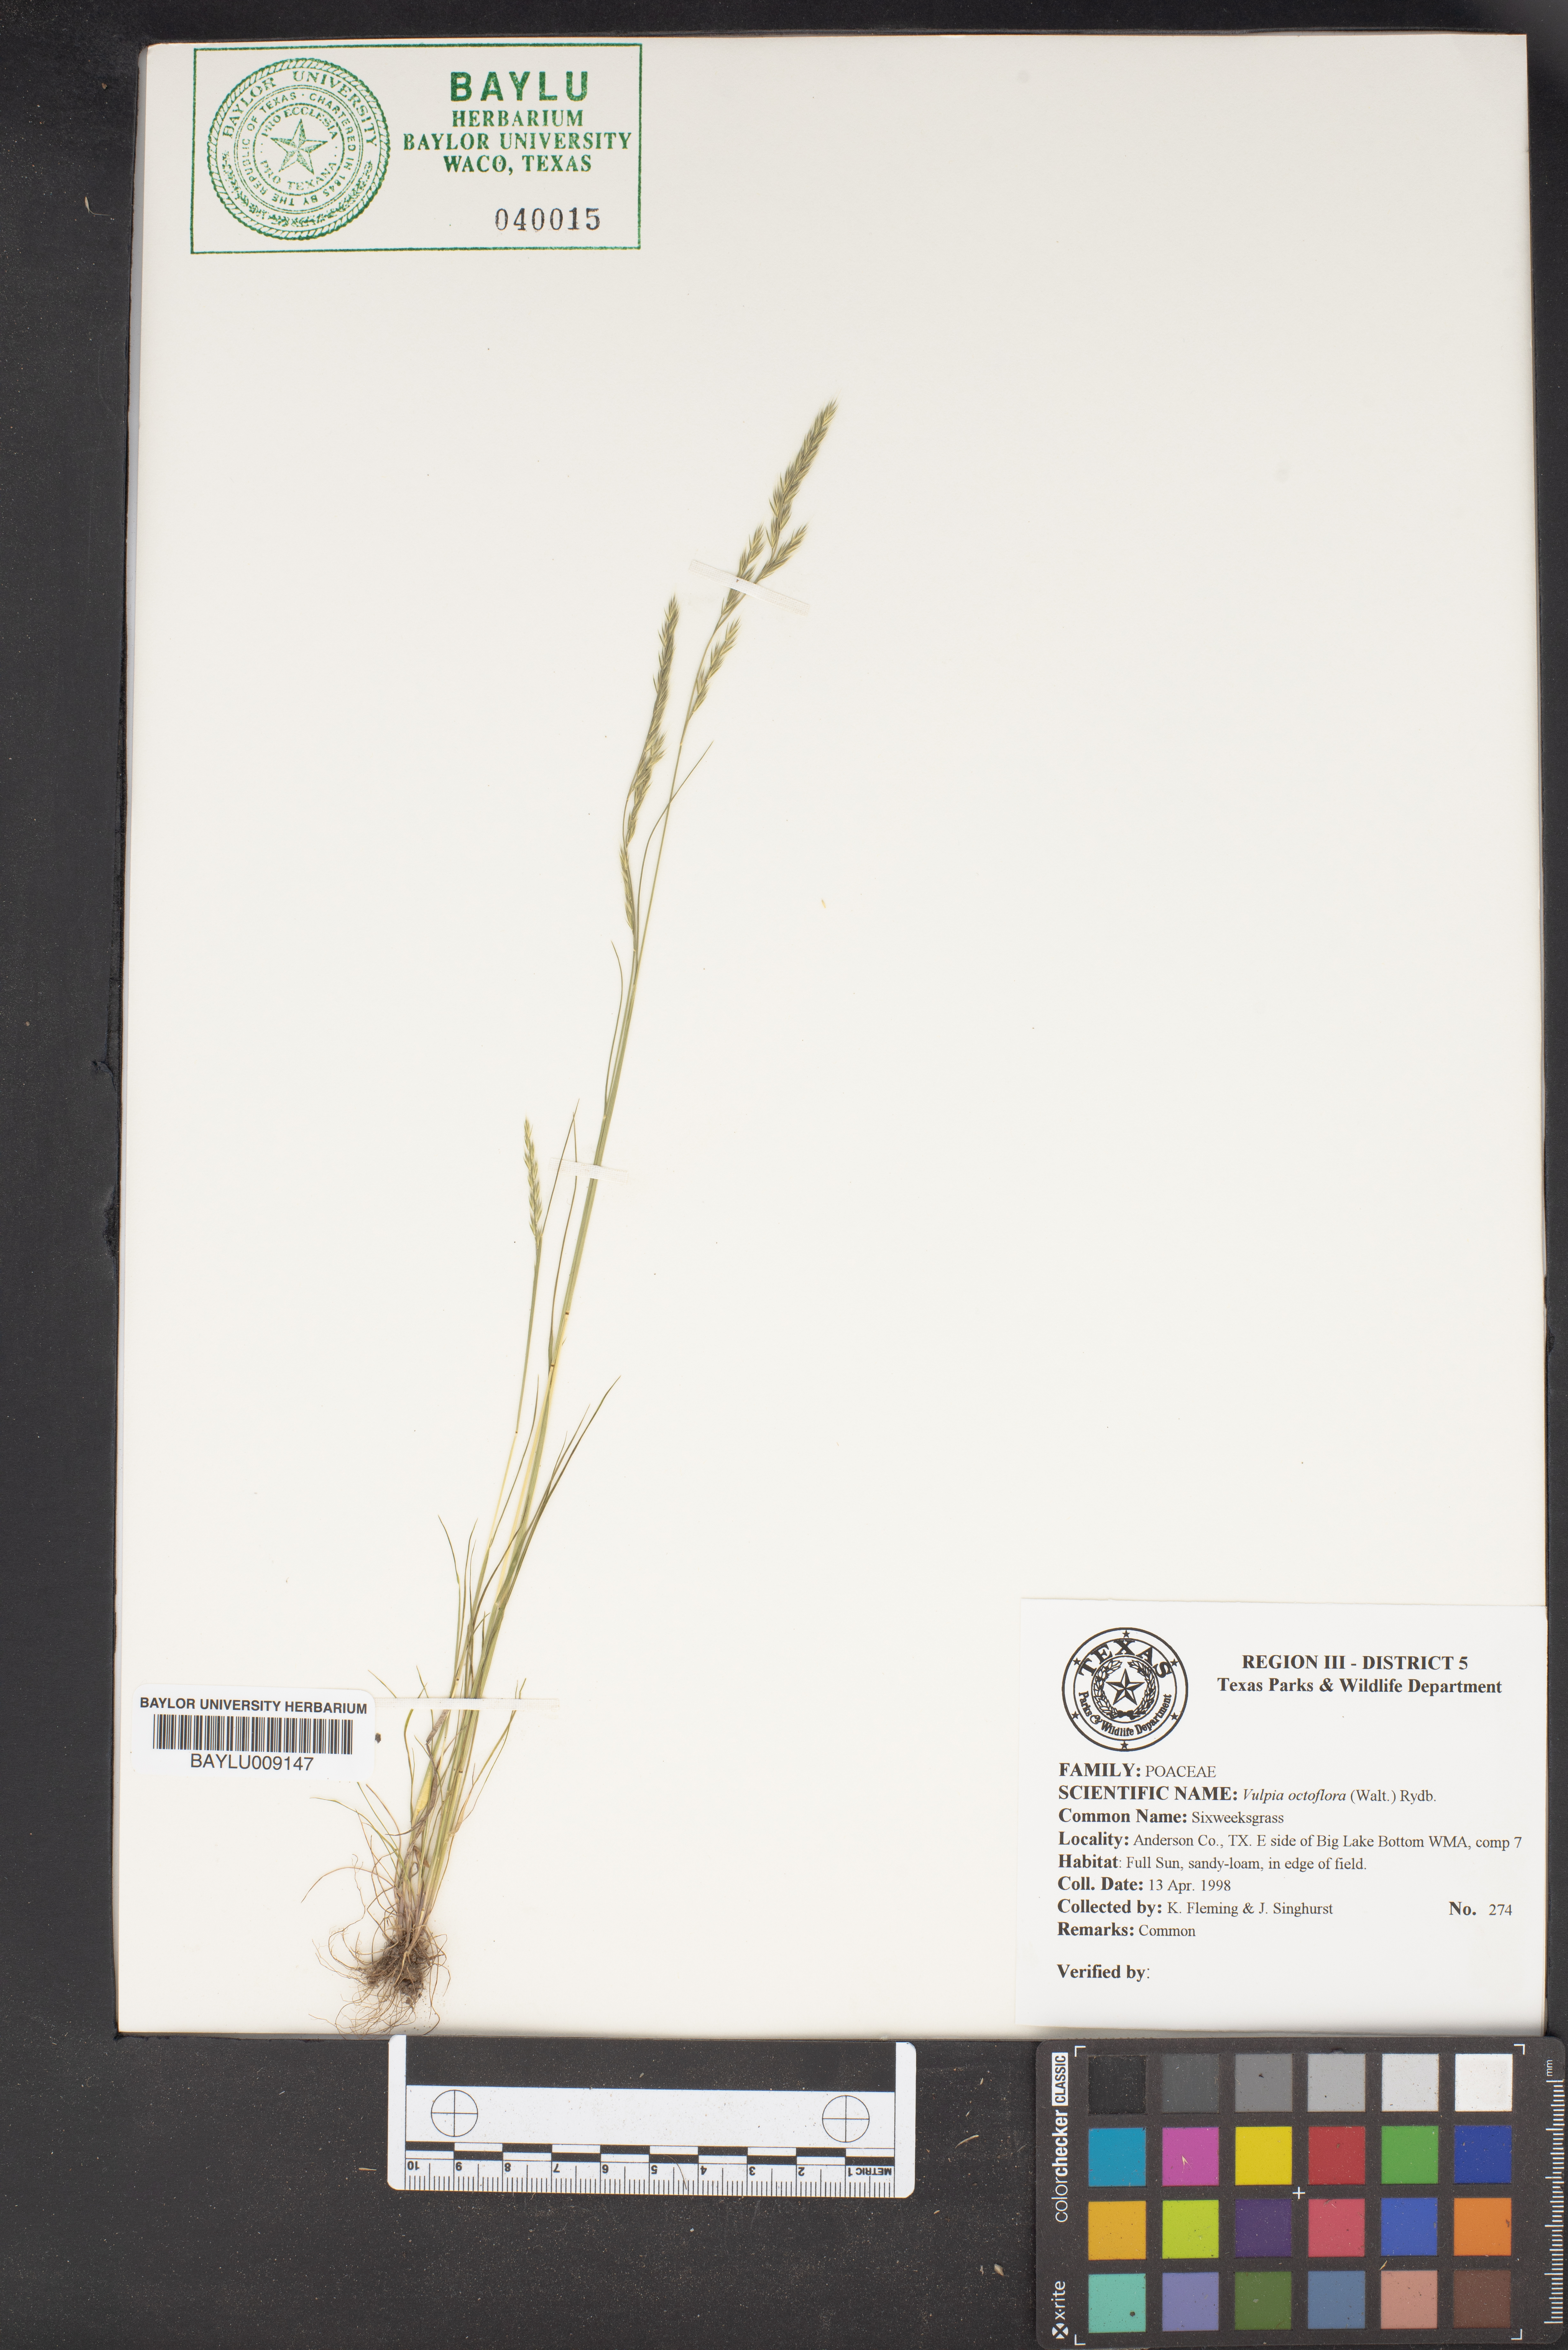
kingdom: Plantae
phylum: Tracheophyta
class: Liliopsida
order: Poales
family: Poaceae
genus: Festuca
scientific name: Festuca octoflora
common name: Sixweeks grass
